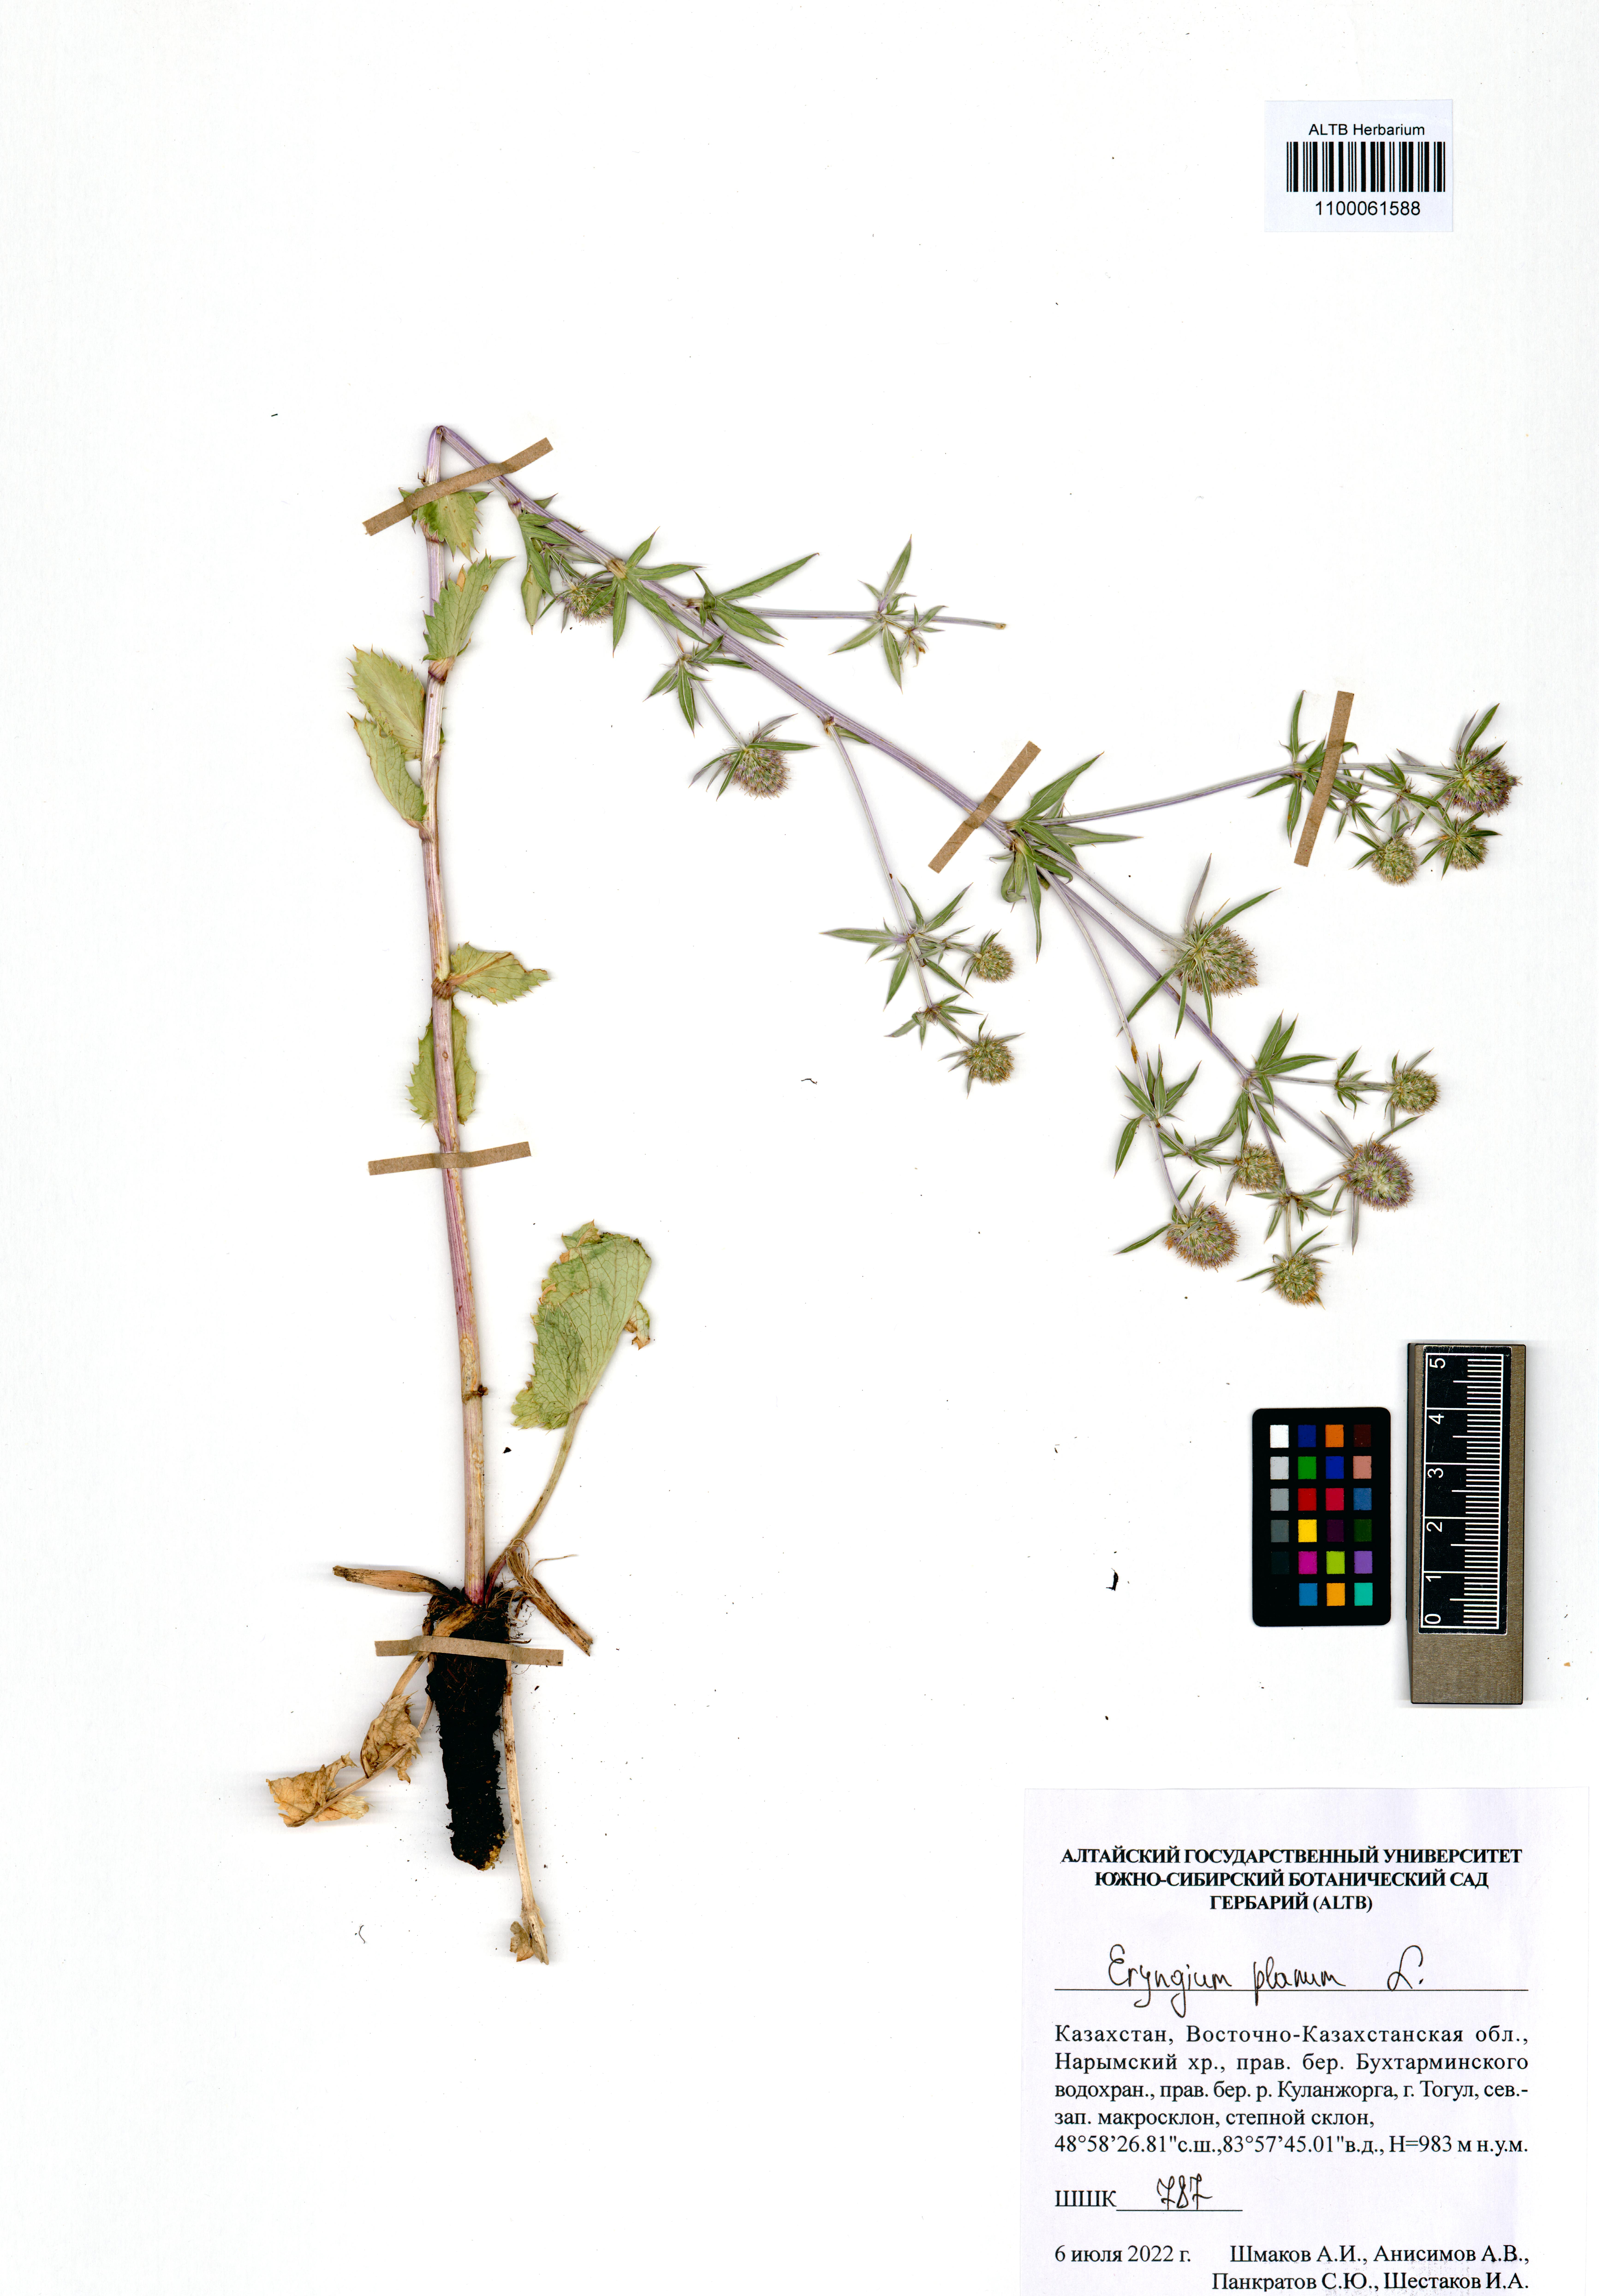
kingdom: Plantae
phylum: Tracheophyta
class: Magnoliopsida
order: Apiales
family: Apiaceae
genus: Eryngium
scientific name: Eryngium planum
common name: Blue eryngo
